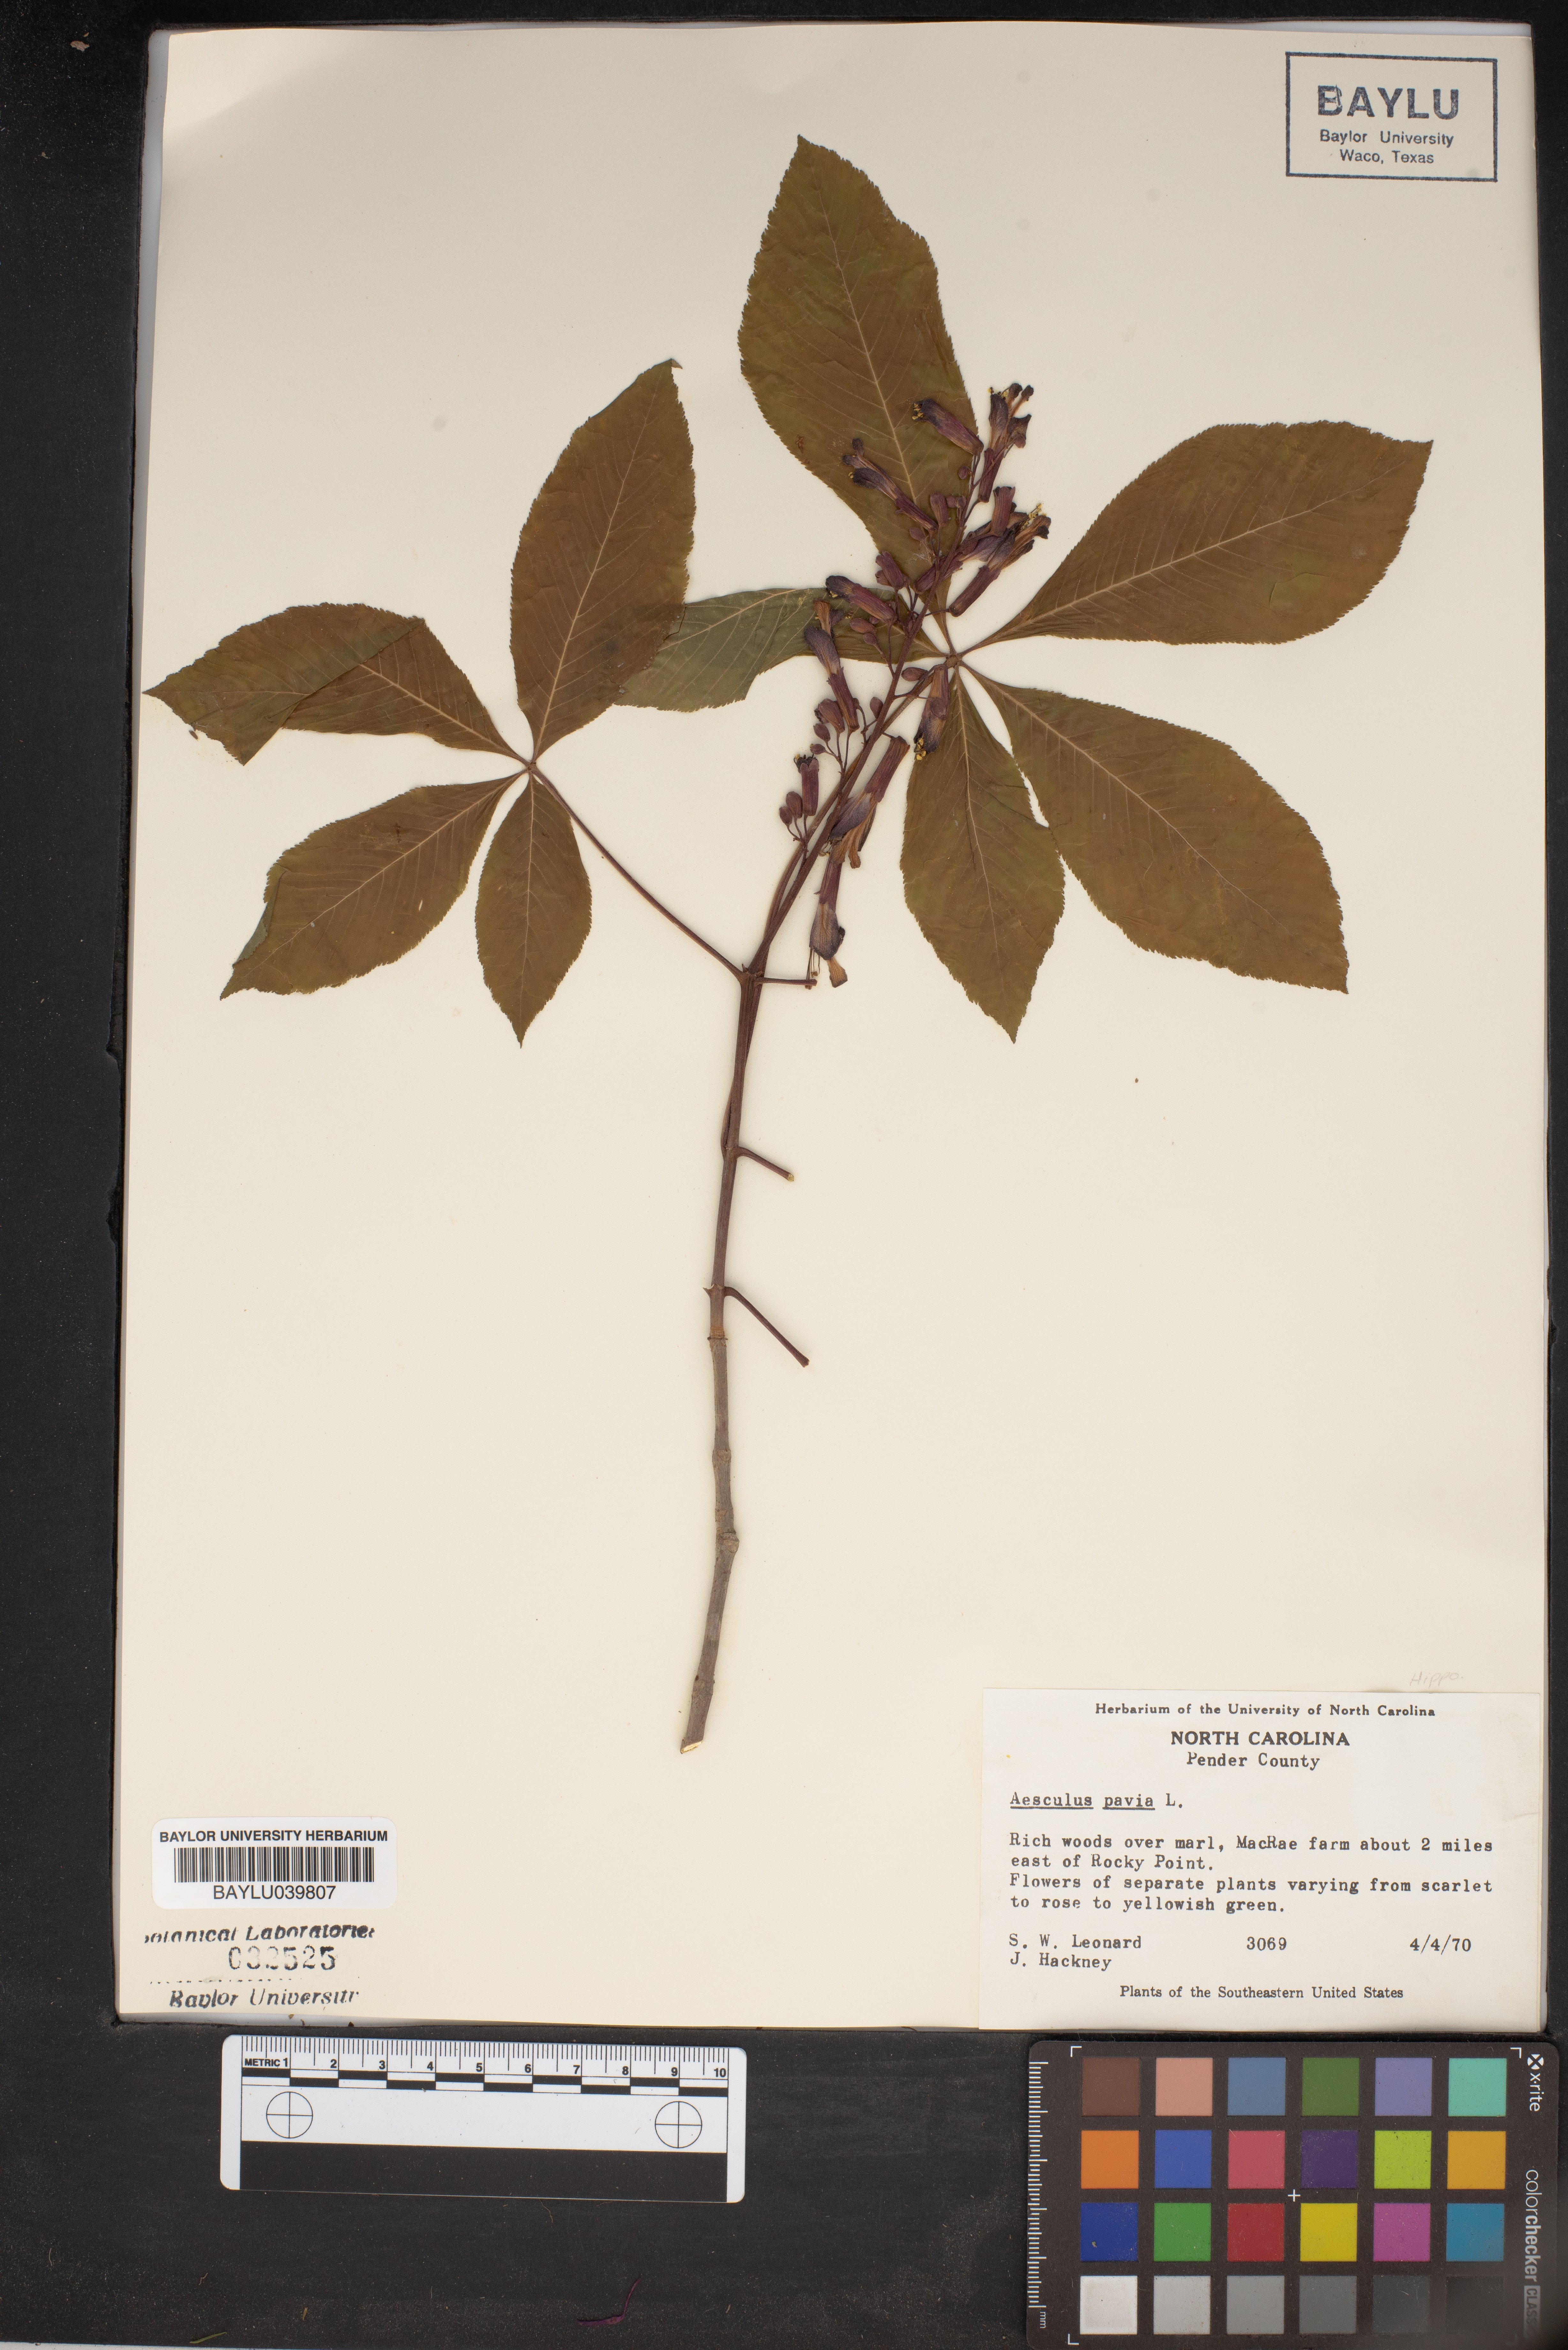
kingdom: Plantae
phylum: Tracheophyta
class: Magnoliopsida
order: Sapindales
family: Sapindaceae
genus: Aesculus
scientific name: Aesculus pavia
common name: Red buckeye
